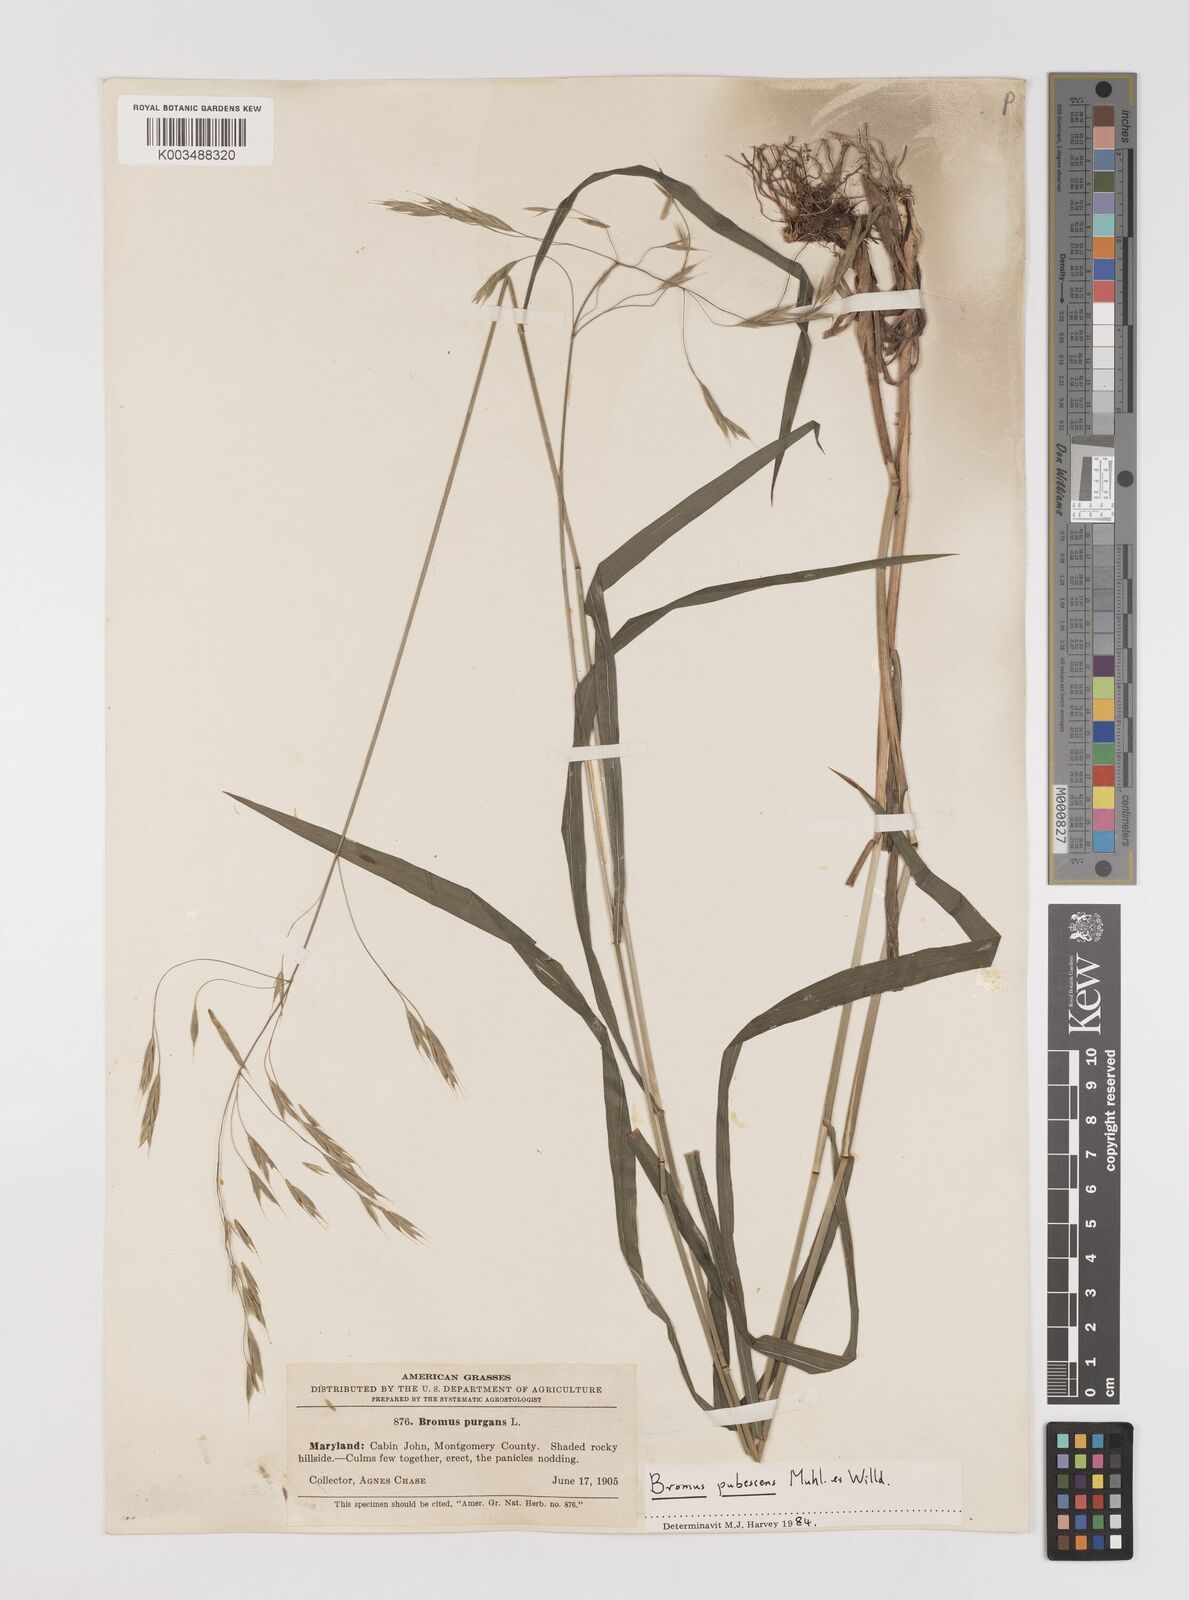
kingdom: Plantae
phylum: Tracheophyta
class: Liliopsida
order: Poales
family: Poaceae
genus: Bromus
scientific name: Bromus pubescens
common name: Hairy wood brome grass
